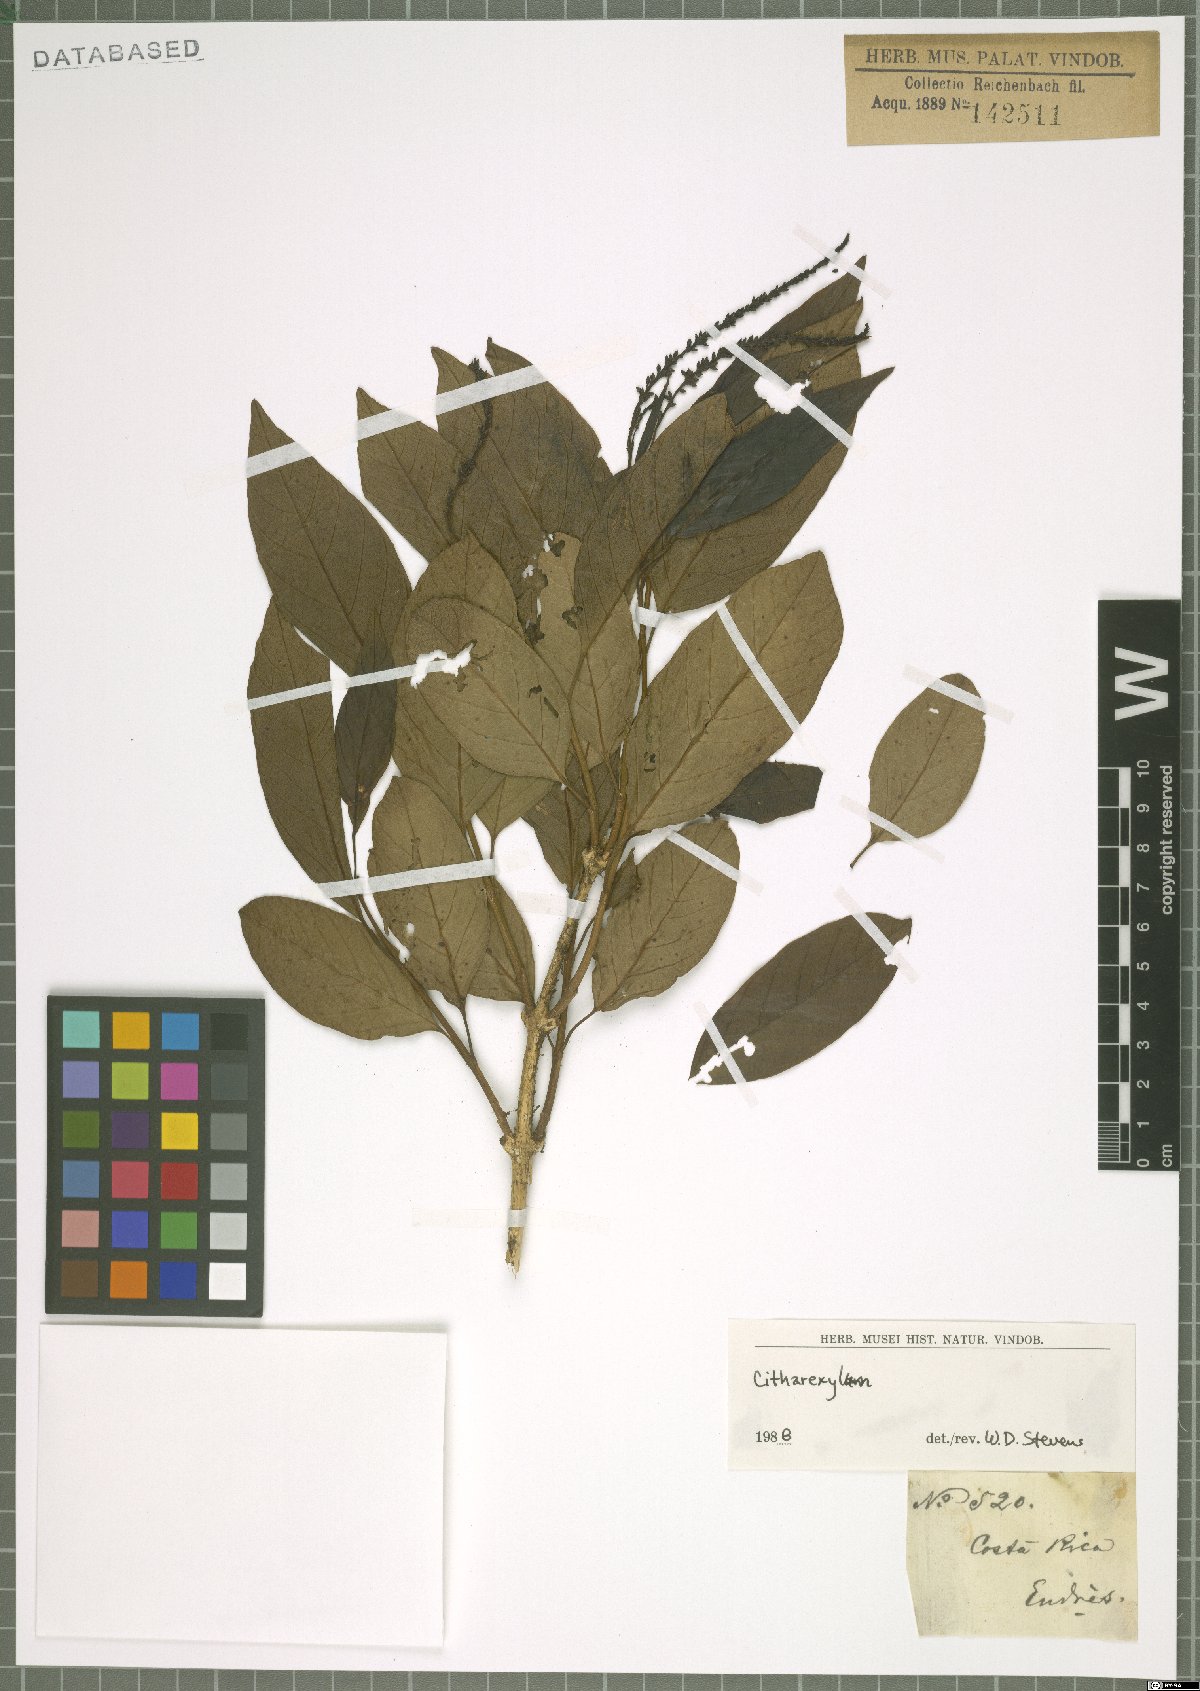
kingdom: Plantae
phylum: Tracheophyta
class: Magnoliopsida
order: Lamiales
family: Verbenaceae
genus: Citharexylum
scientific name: Citharexylum
